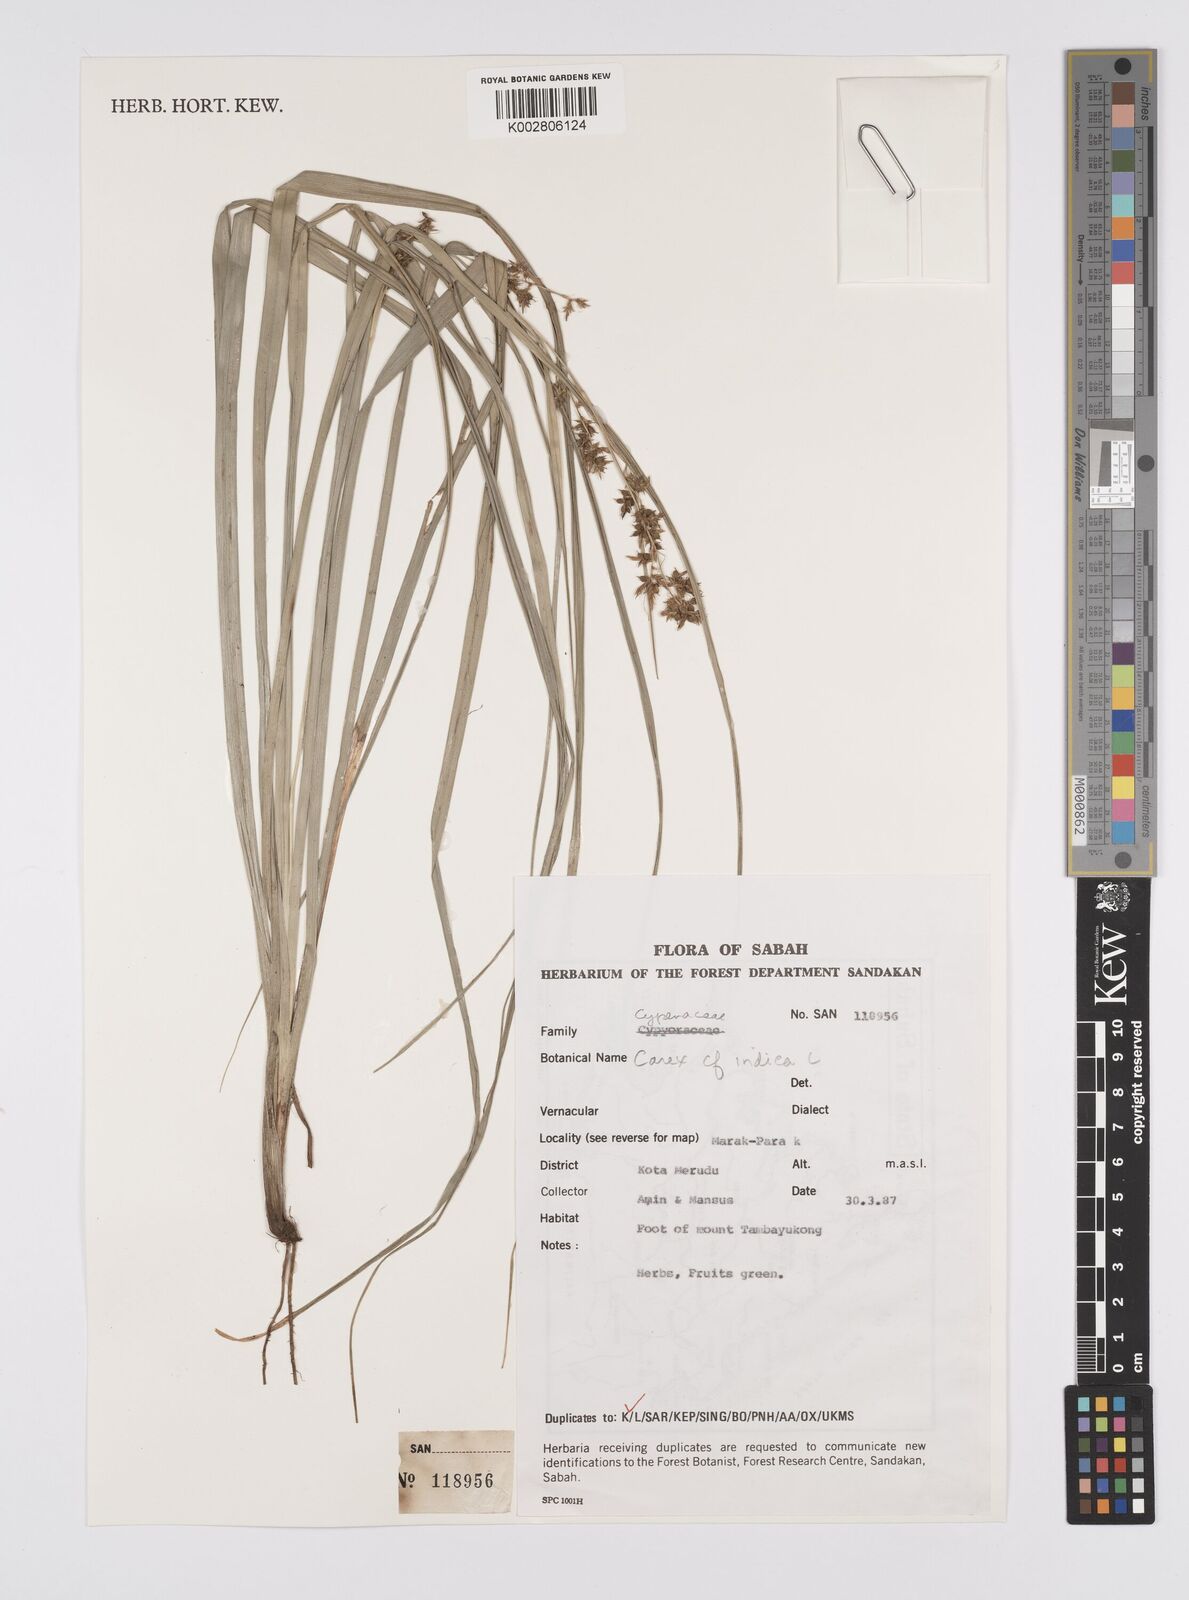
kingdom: Plantae
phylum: Tracheophyta
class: Liliopsida
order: Poales
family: Cyperaceae
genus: Carex
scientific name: Carex indica
